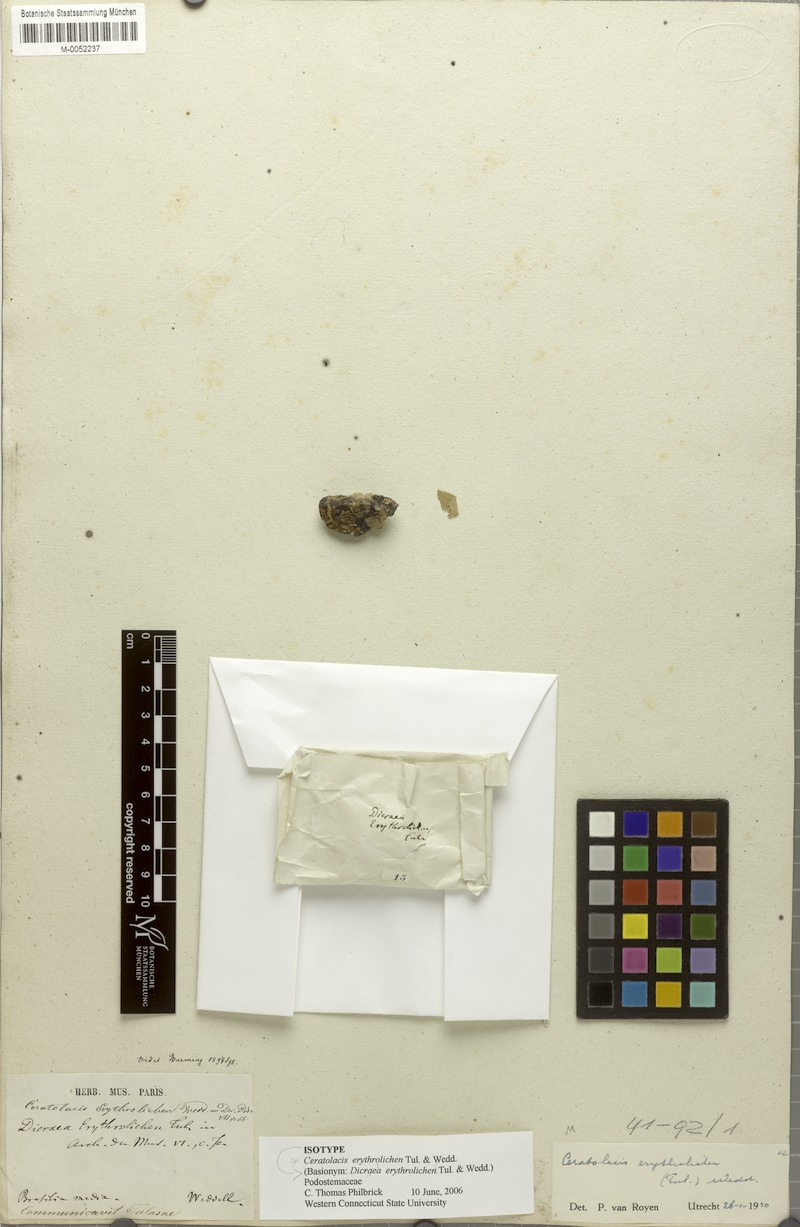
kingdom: Plantae
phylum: Tracheophyta
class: Magnoliopsida
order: Malpighiales
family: Podostemaceae
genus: Ceratolacis
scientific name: Ceratolacis erythrolichen
